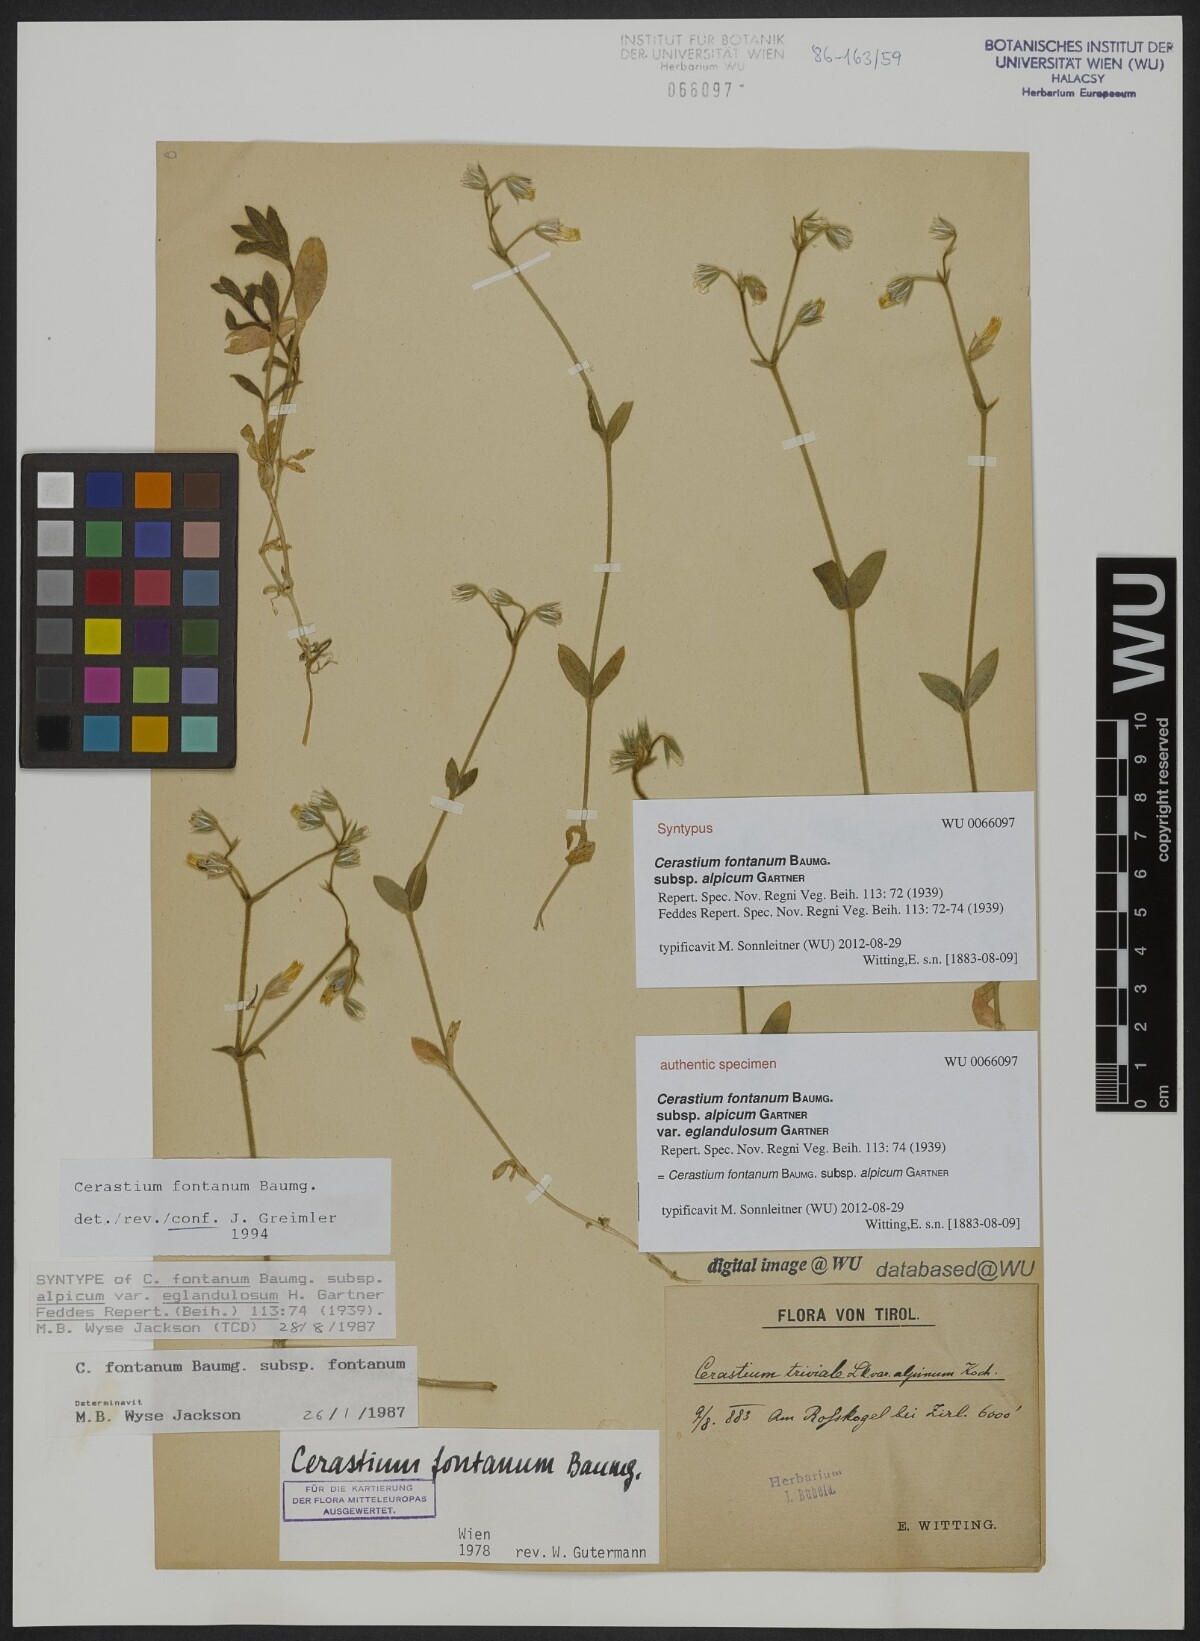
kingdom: Plantae
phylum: Tracheophyta
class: Magnoliopsida
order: Caryophyllales
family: Caryophyllaceae
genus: Cerastium
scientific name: Cerastium fontanum
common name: Common mouse-ear
